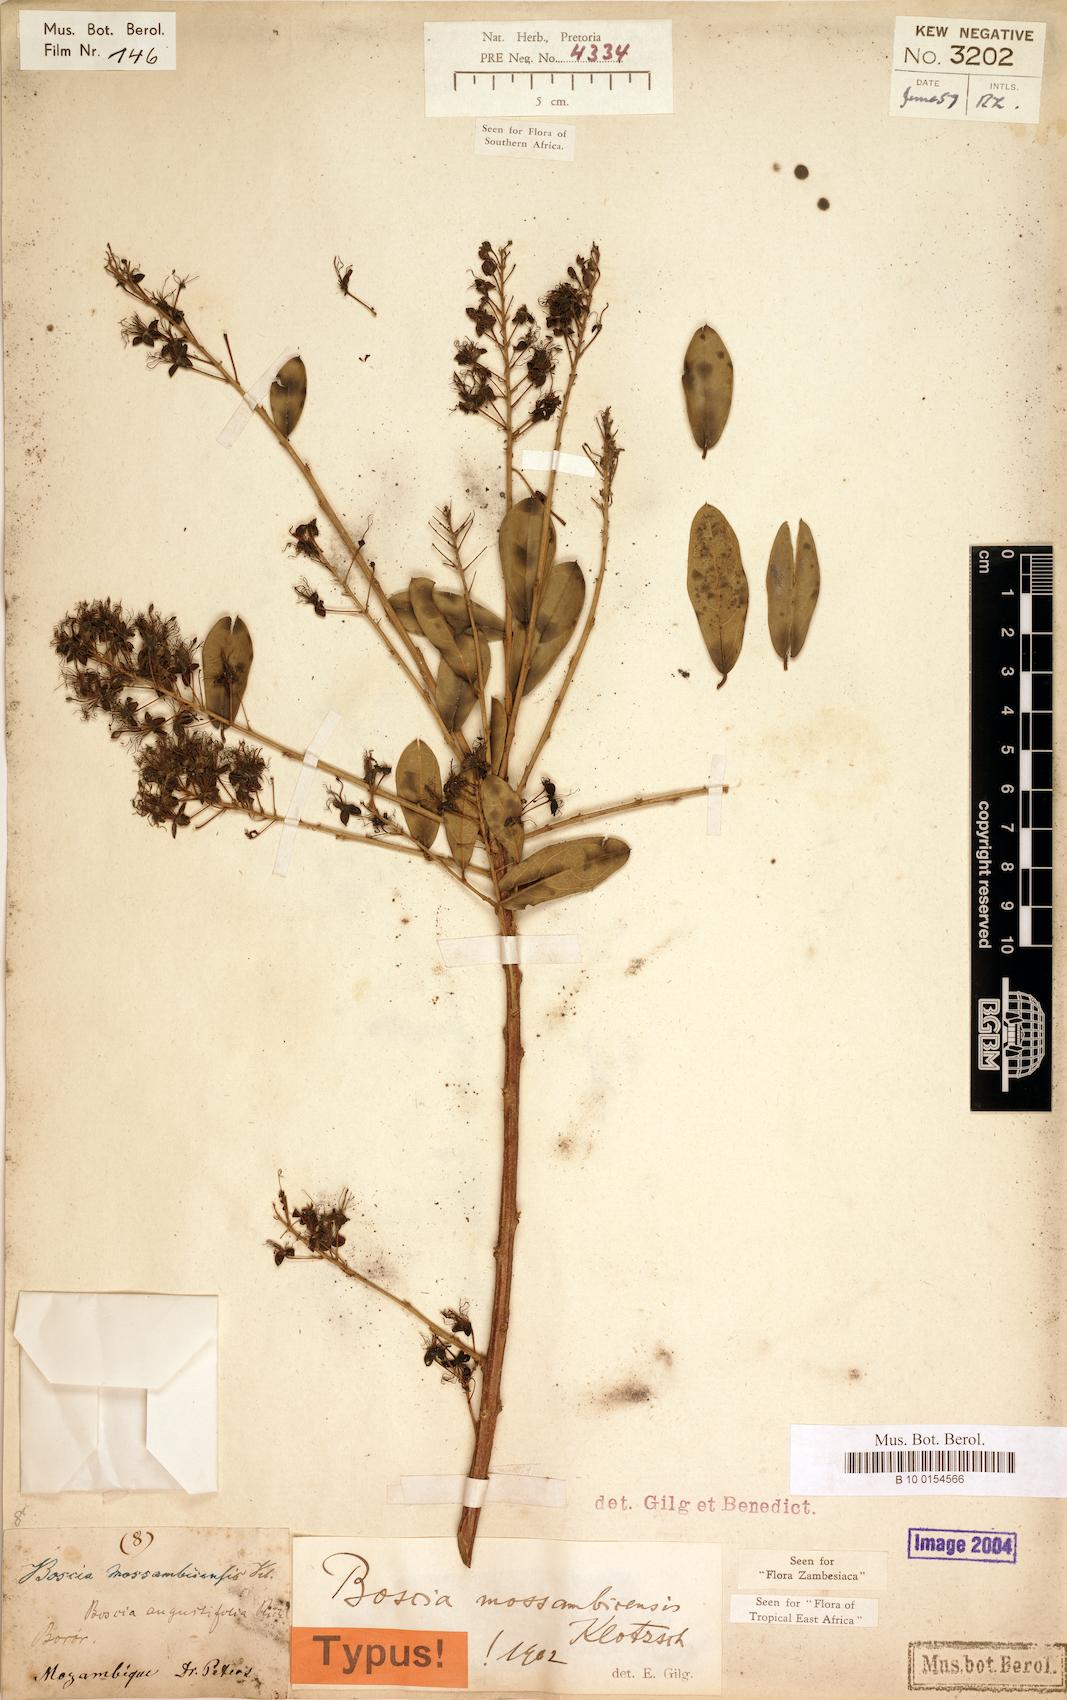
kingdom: Plantae
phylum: Tracheophyta
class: Magnoliopsida
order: Brassicales
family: Capparaceae
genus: Boscia
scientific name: Boscia mossambicensis
